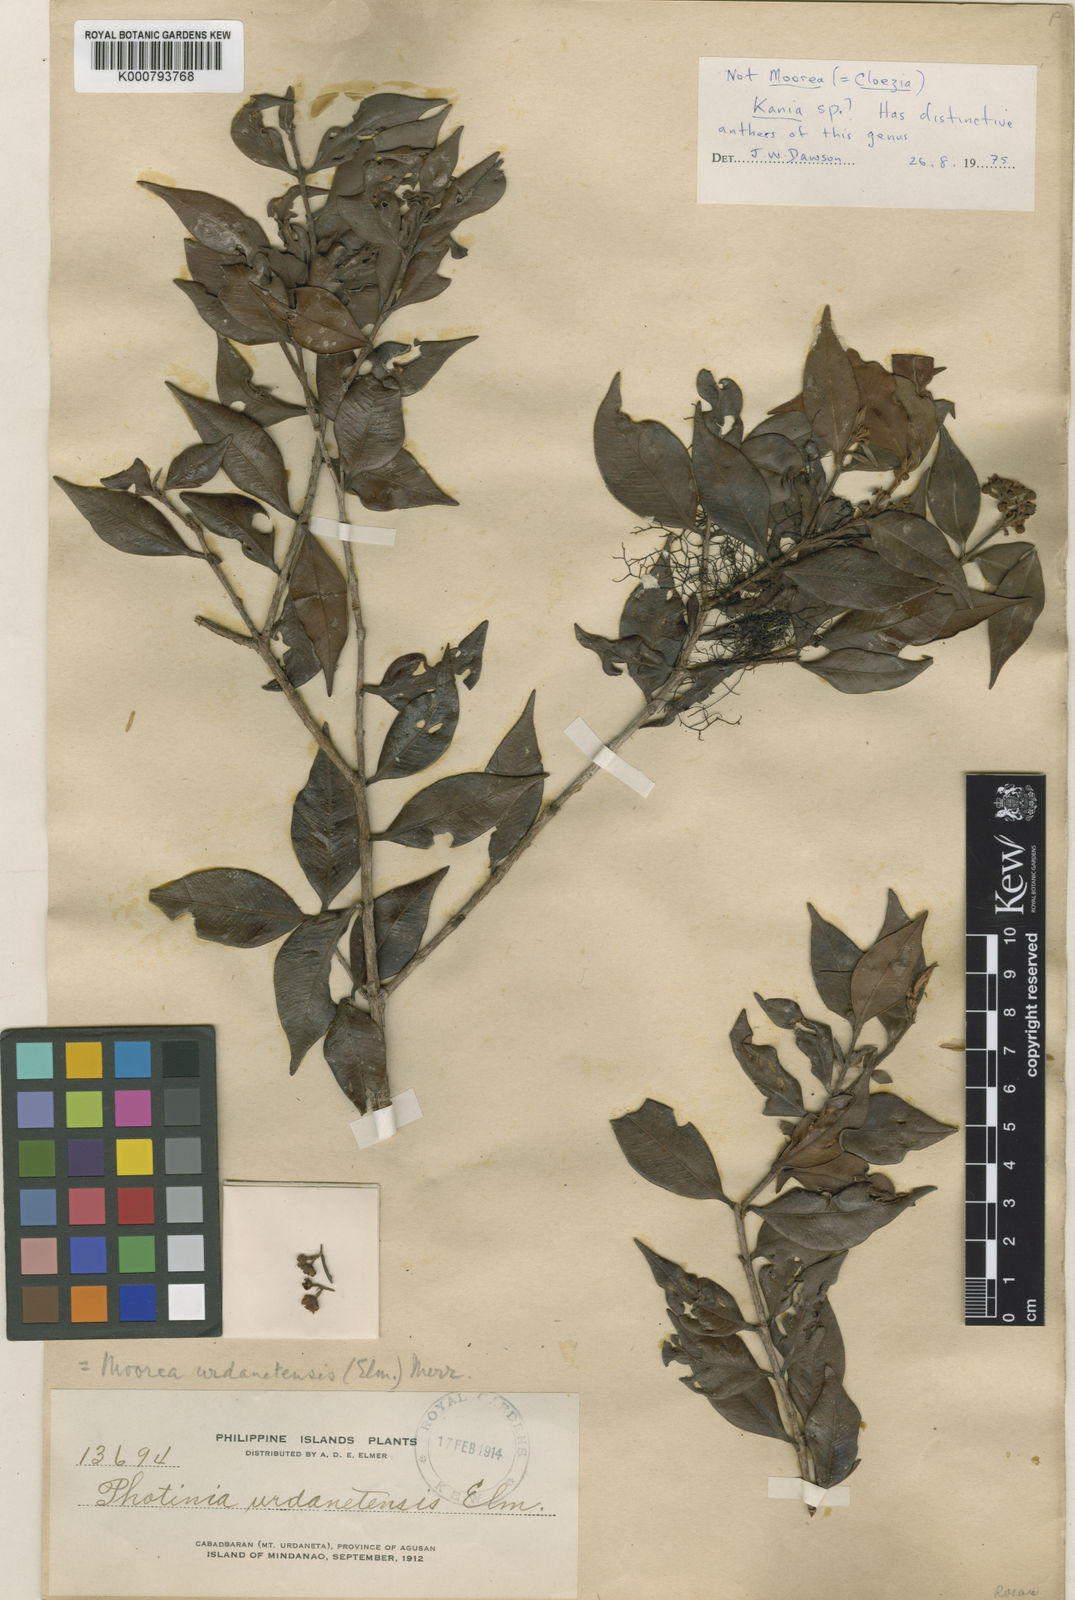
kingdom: Plantae
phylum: Tracheophyta
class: Magnoliopsida
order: Myrtales
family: Myrtaceae
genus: Kania
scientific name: Kania urdanetensis
